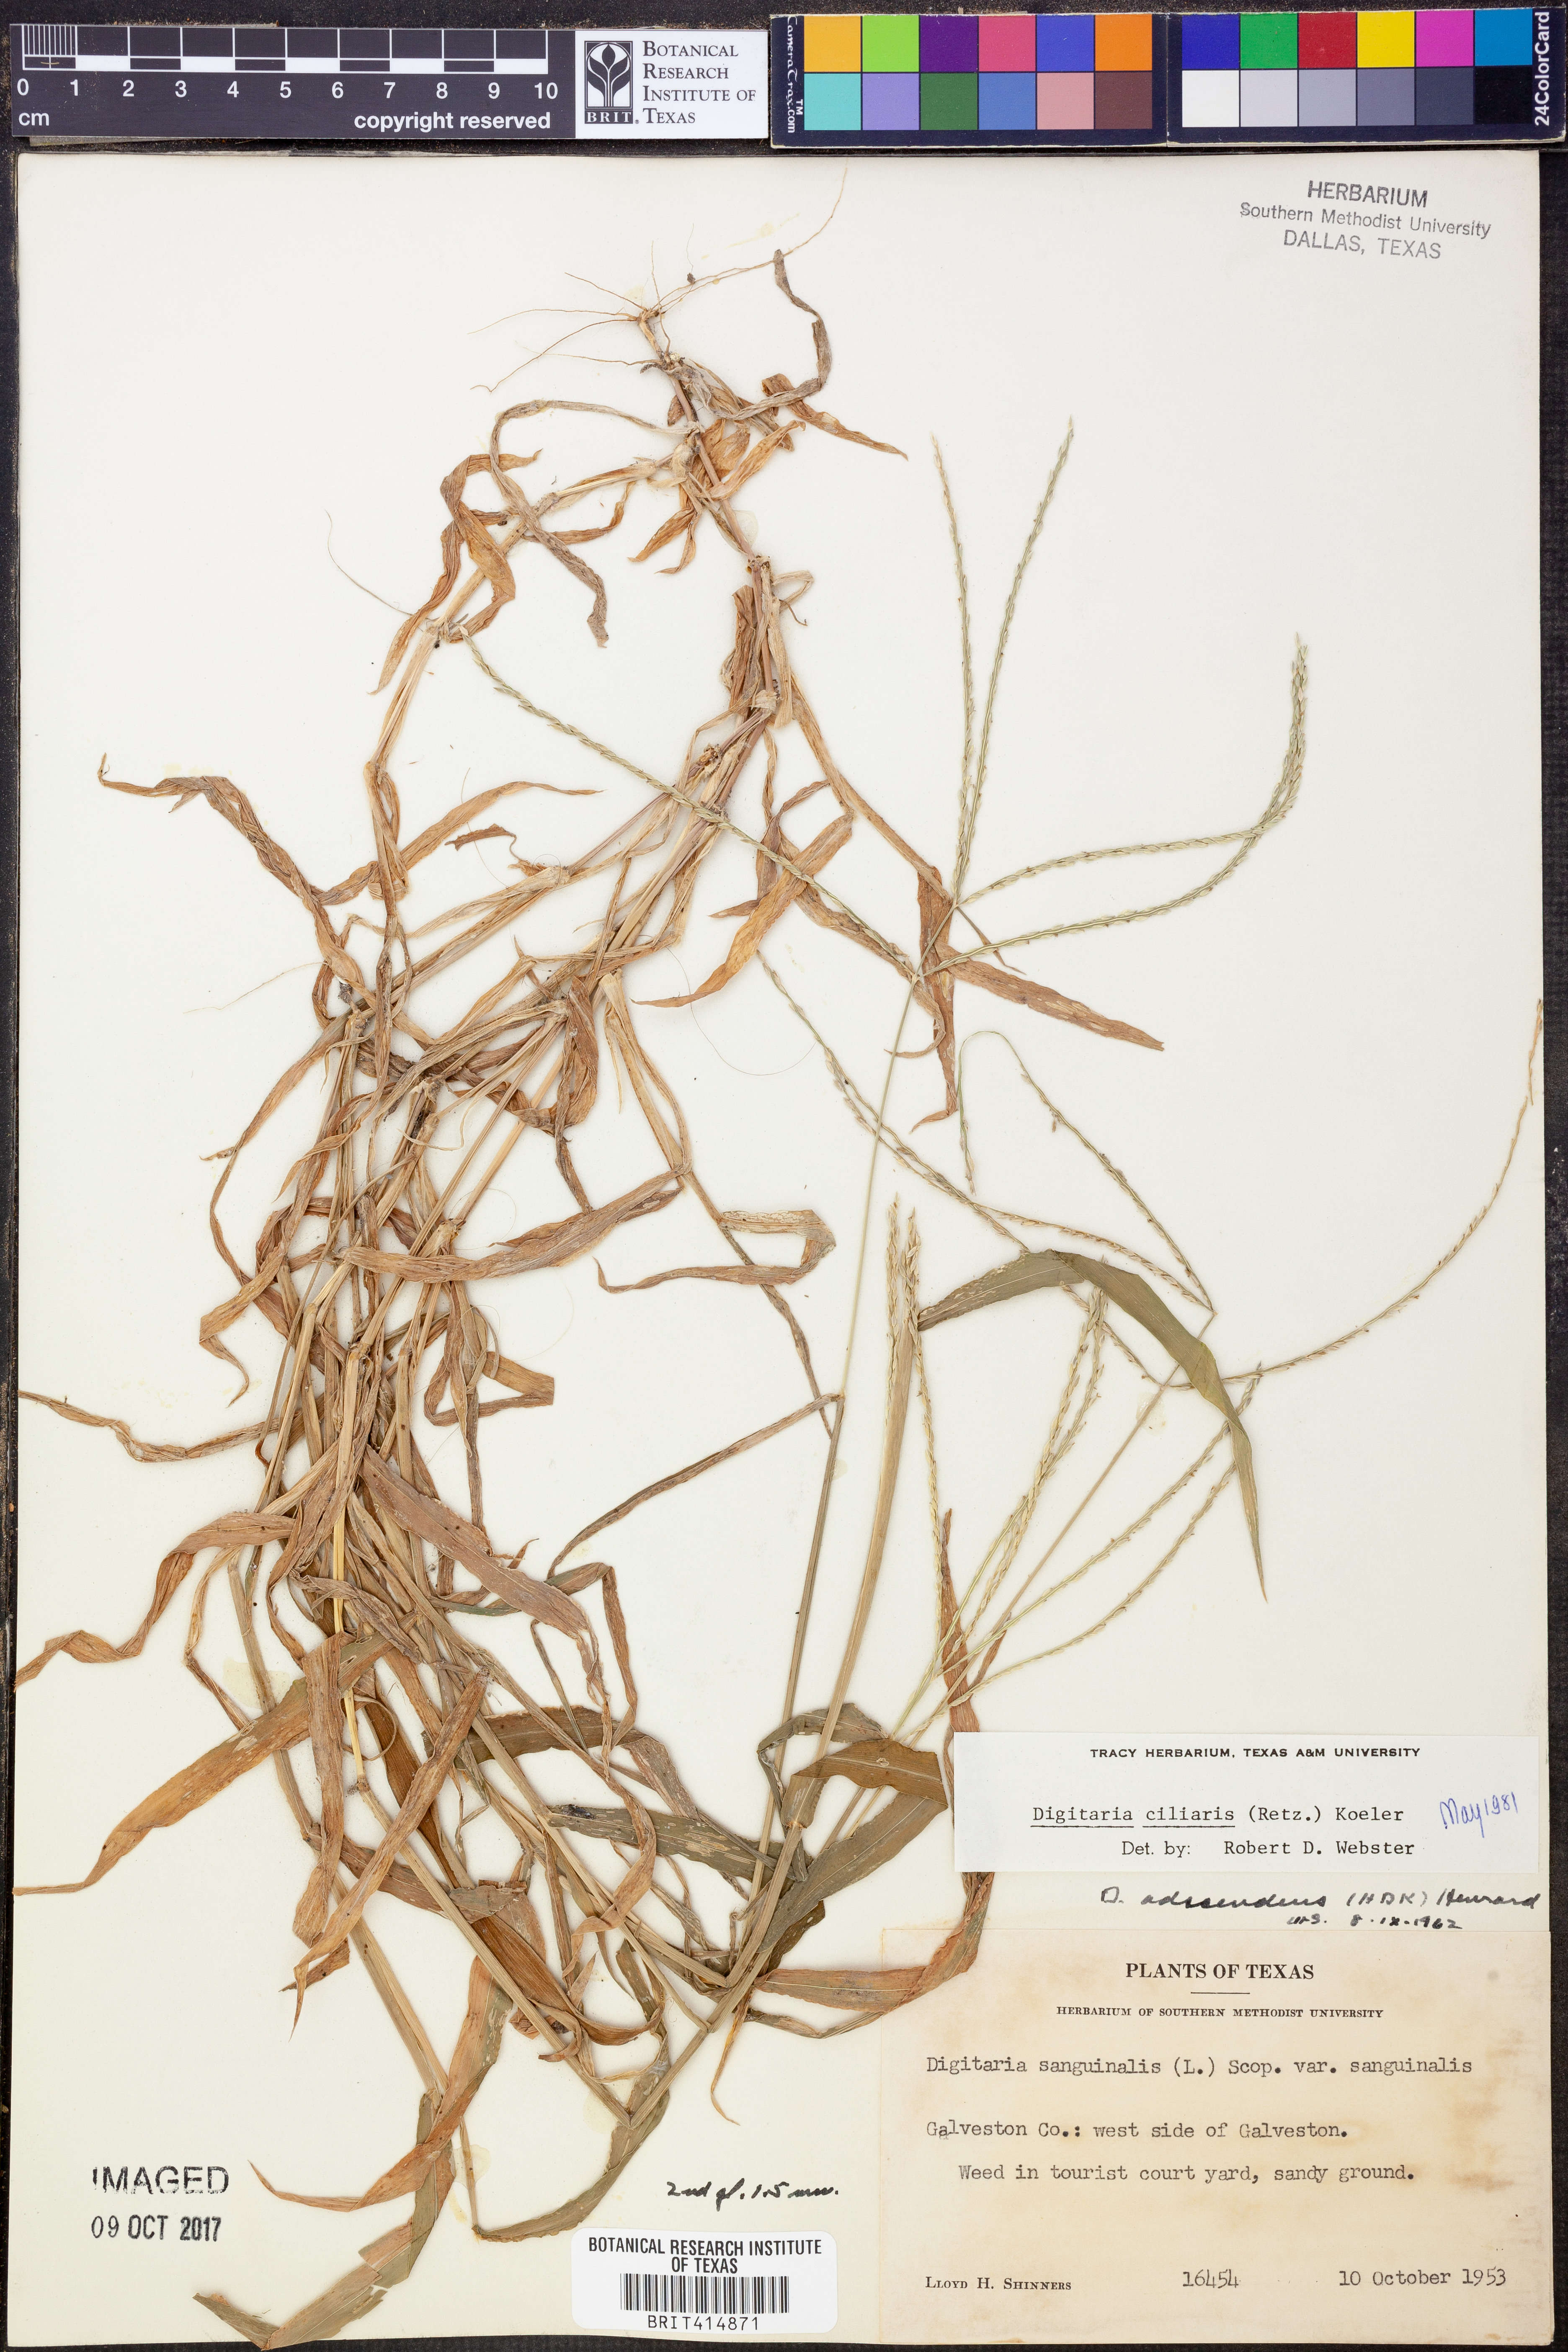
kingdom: Plantae
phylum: Tracheophyta
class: Liliopsida
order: Poales
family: Poaceae
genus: Digitaria
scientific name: Digitaria ciliaris
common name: Tropical finger-grass
